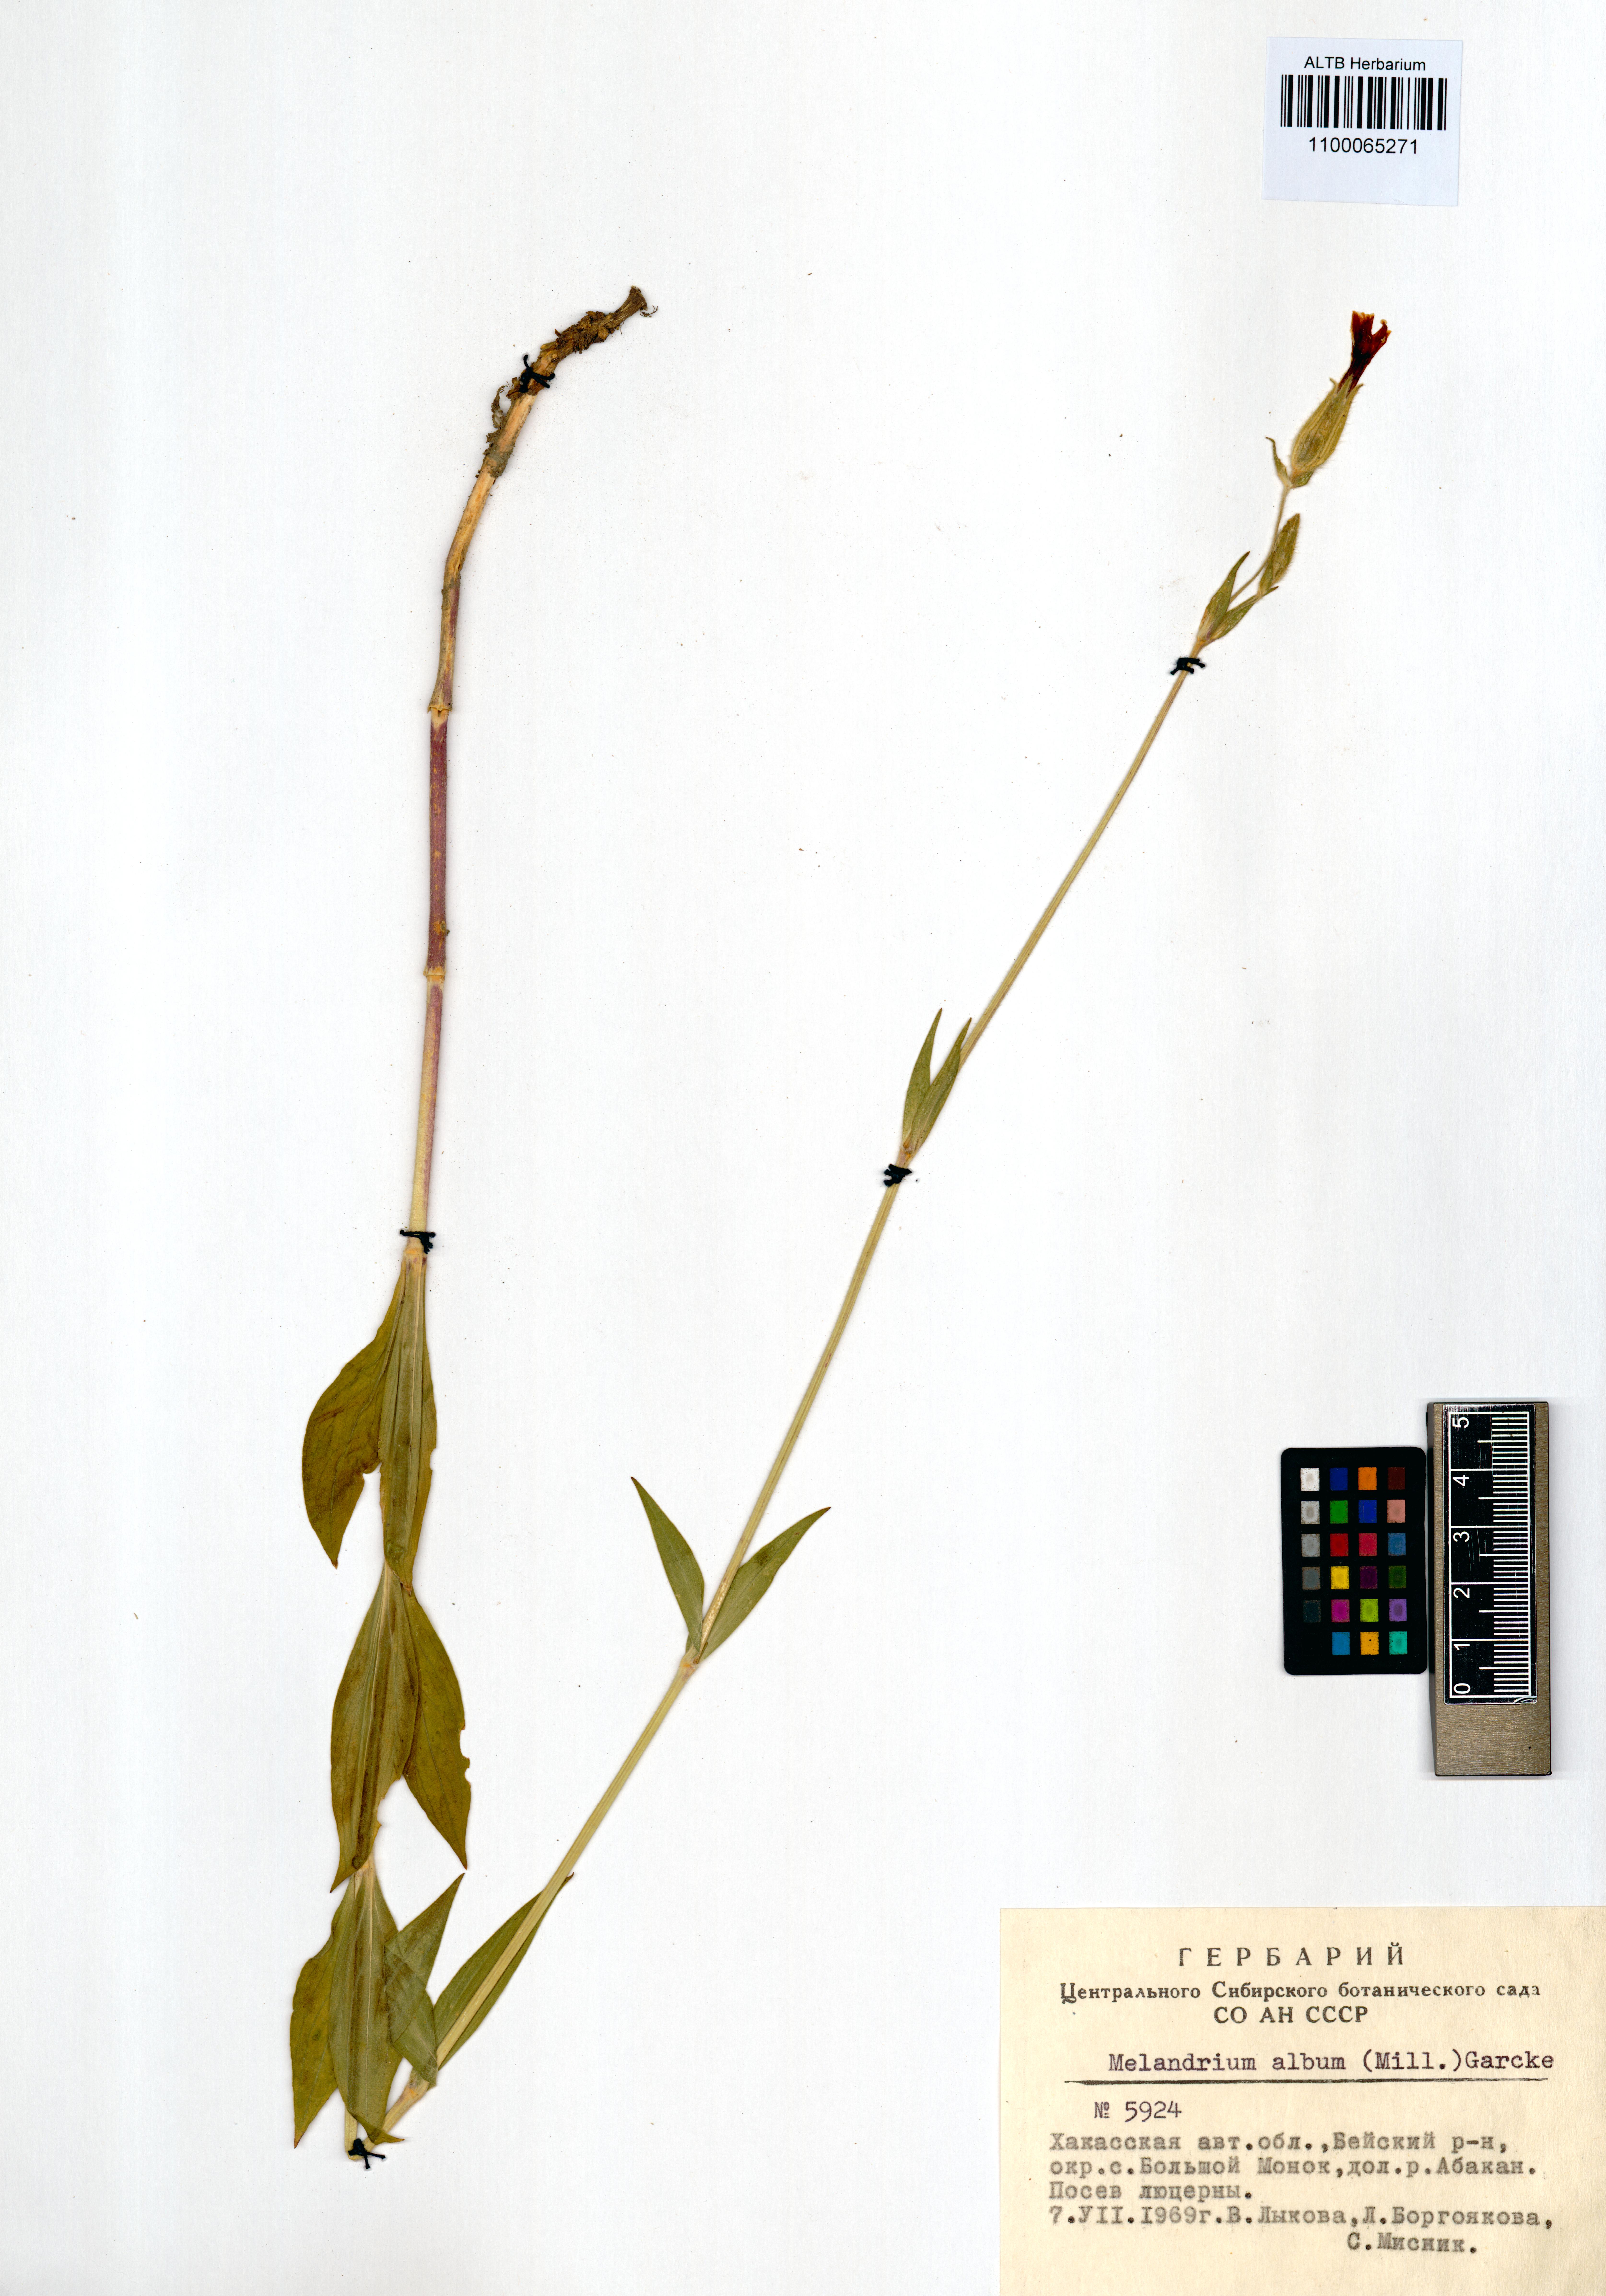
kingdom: Plantae
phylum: Tracheophyta
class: Magnoliopsida
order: Caryophyllales
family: Caryophyllaceae
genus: Silene
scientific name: Silene latifolia
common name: White campion
